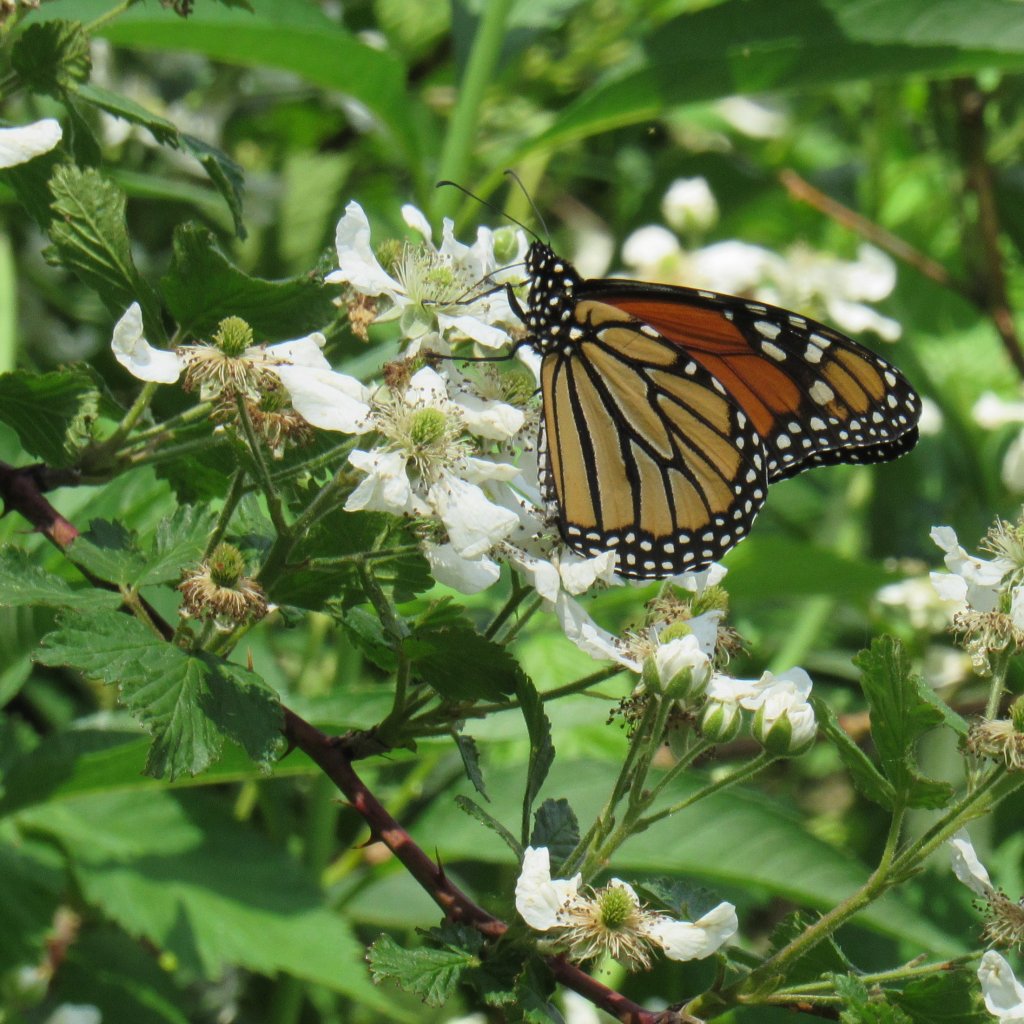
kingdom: Animalia
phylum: Arthropoda
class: Insecta
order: Lepidoptera
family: Nymphalidae
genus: Danaus
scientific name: Danaus plexippus
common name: Monarch
